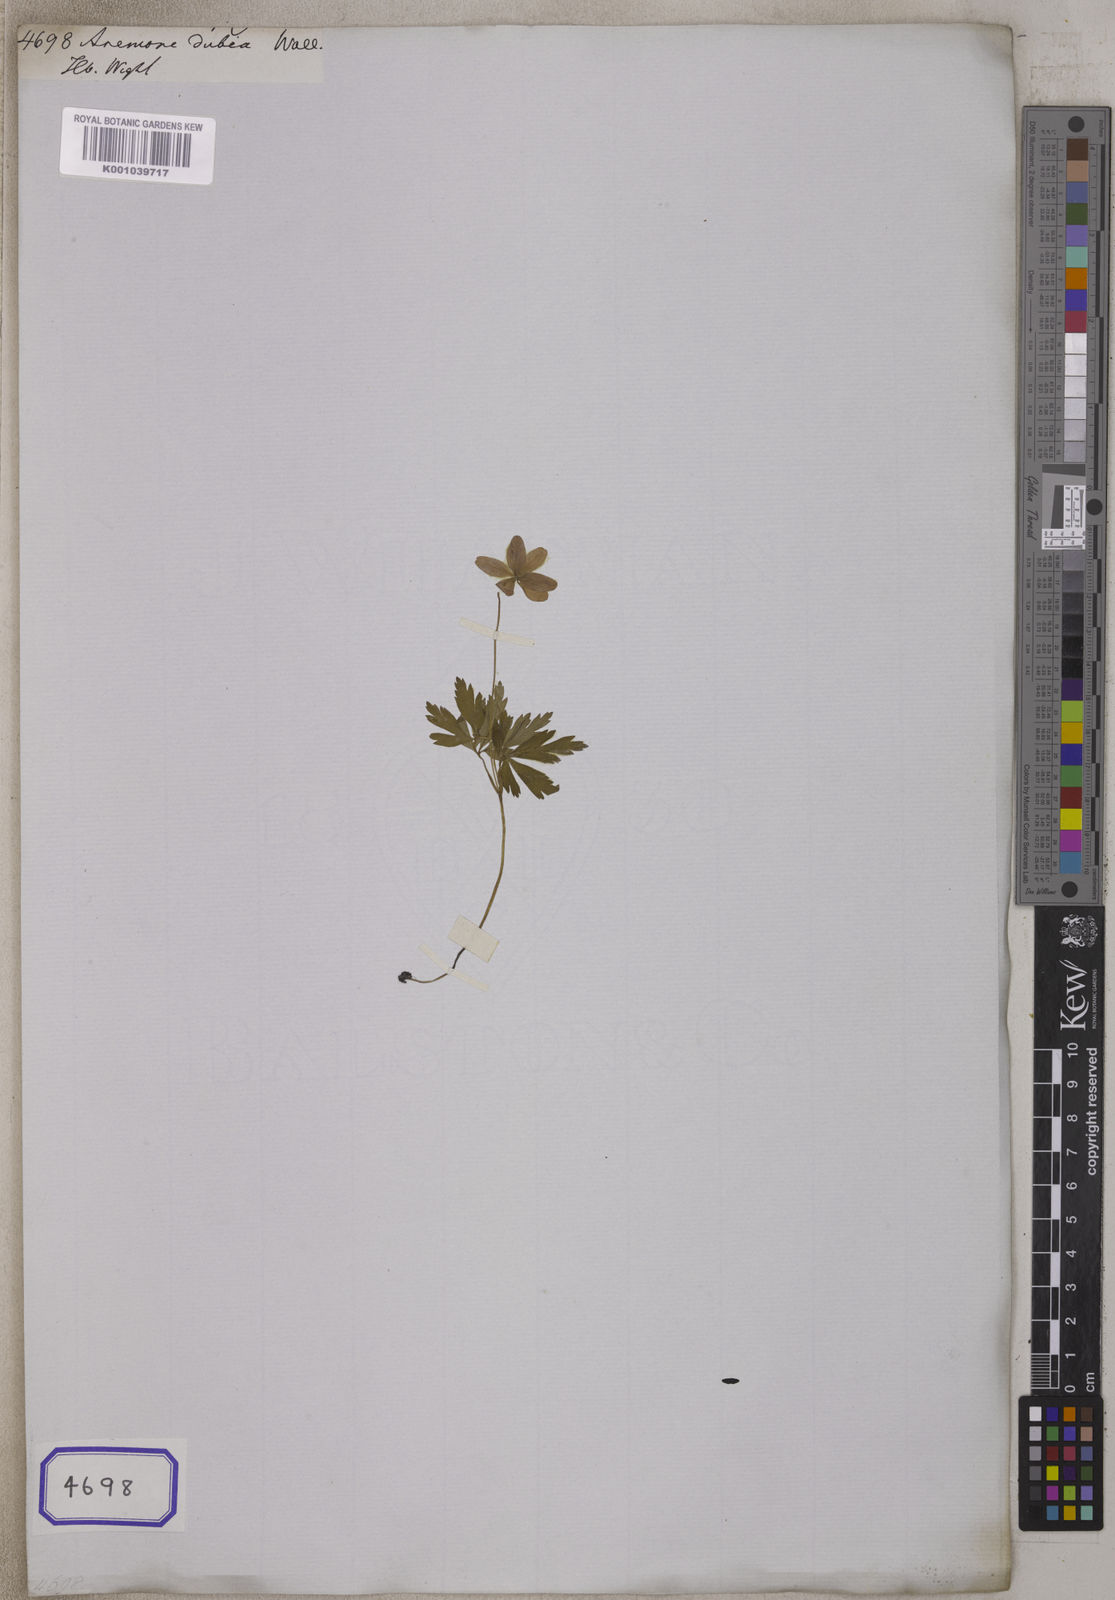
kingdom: Plantae
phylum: Tracheophyta
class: Magnoliopsida
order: Ranunculales
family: Ranunculaceae
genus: Anemone
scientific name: Anemone
